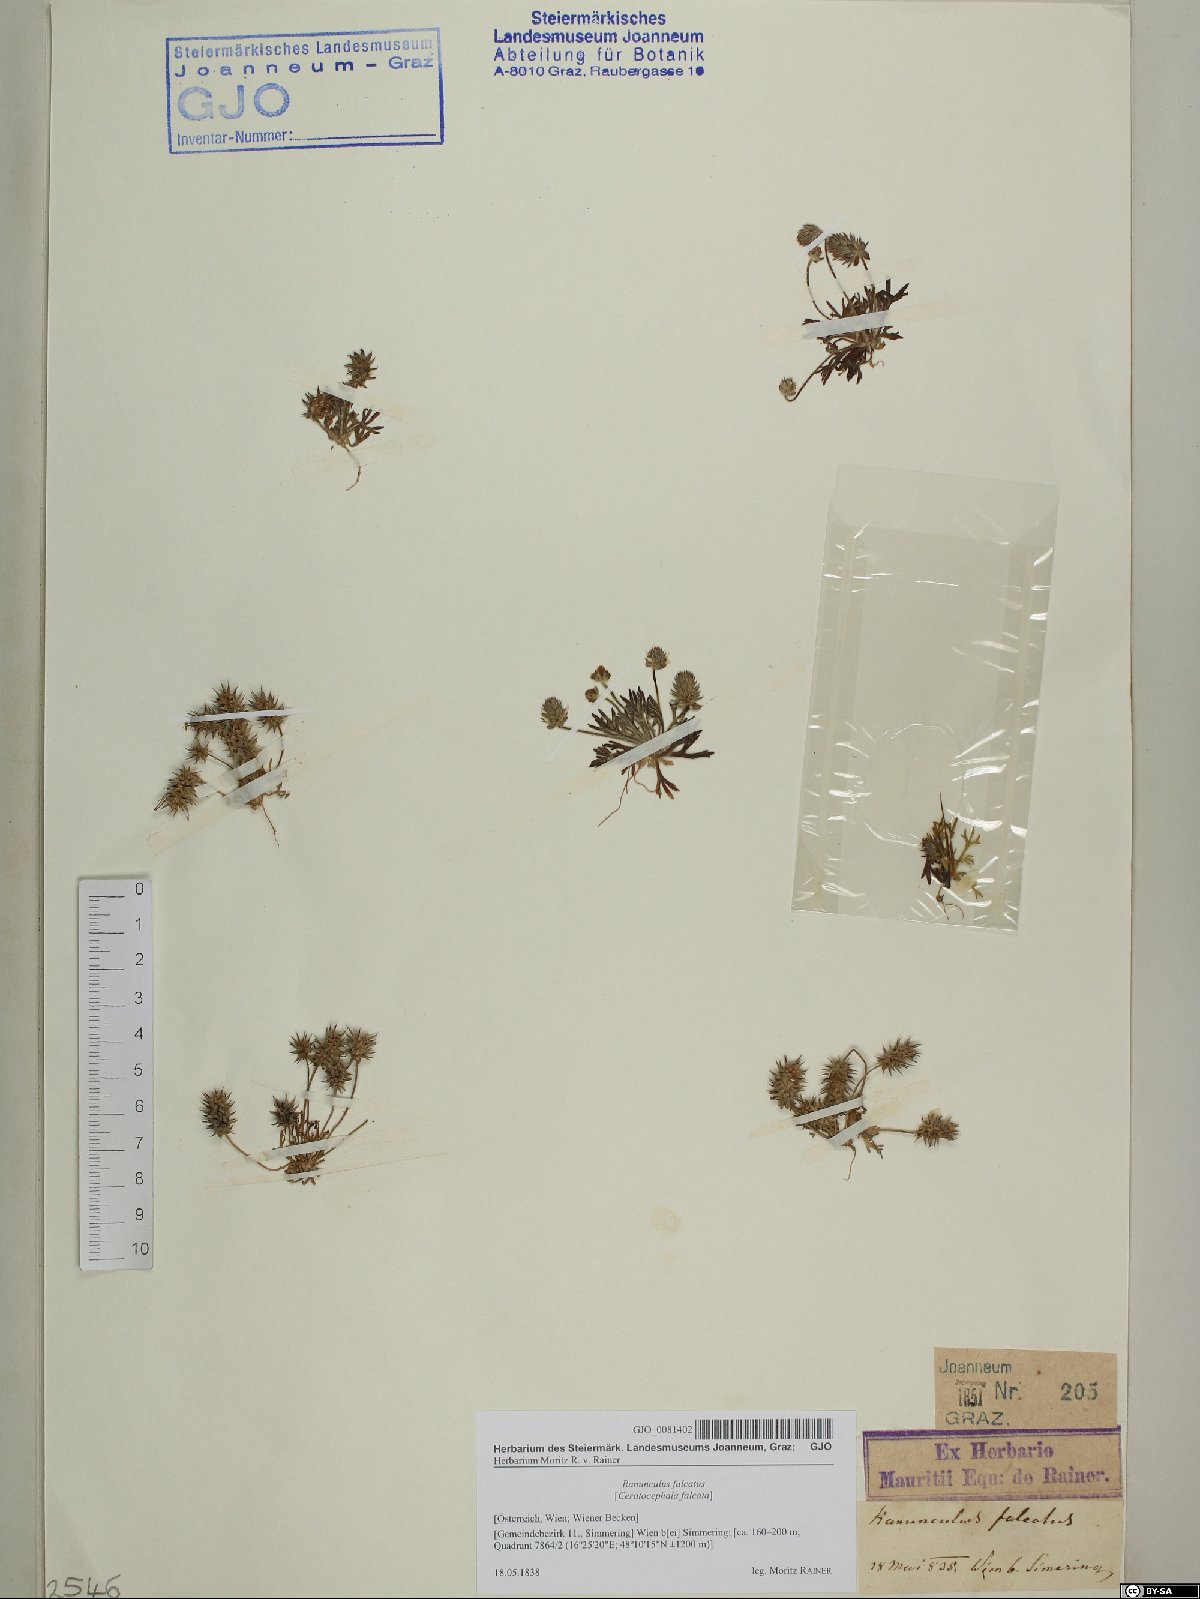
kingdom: Plantae
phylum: Tracheophyta
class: Magnoliopsida
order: Ranunculales
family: Ranunculaceae
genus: Ceratocephala
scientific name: Ceratocephala falcata
